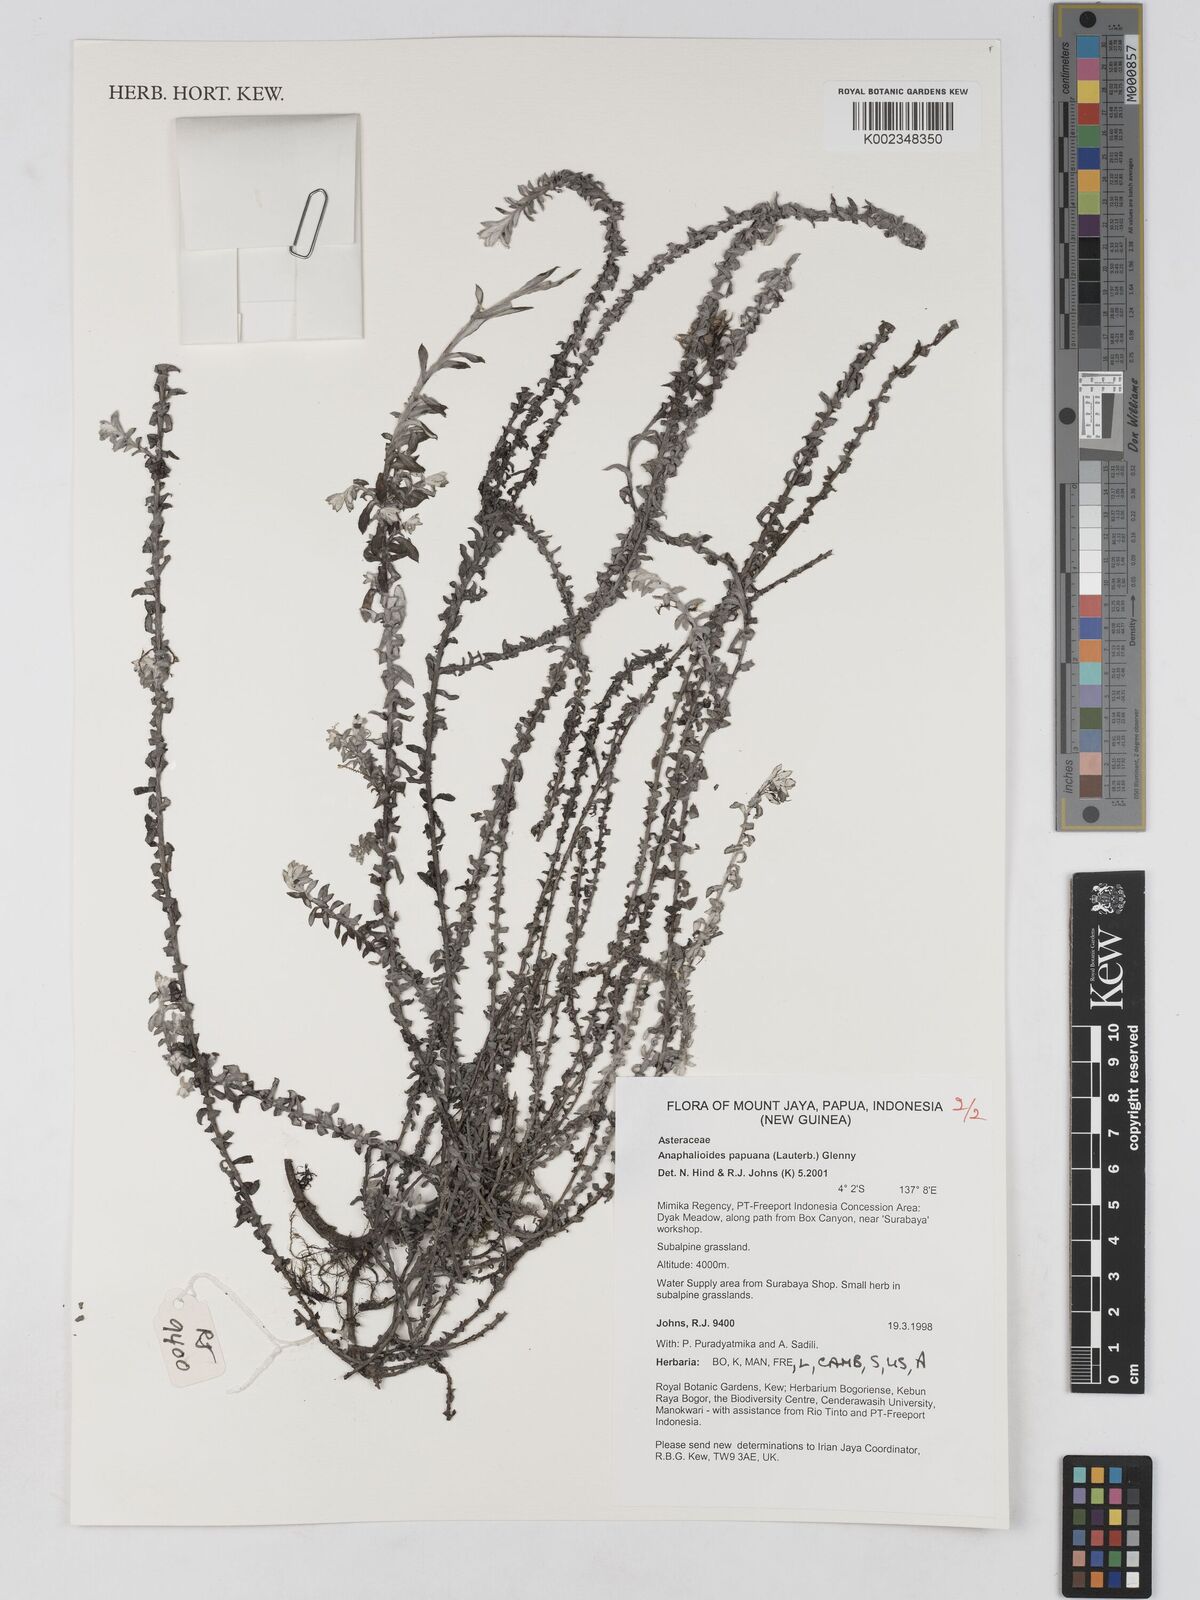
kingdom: Plantae
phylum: Tracheophyta
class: Magnoliopsida
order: Asterales
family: Asteraceae
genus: Anaphalioides
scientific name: Anaphalioides papuana
